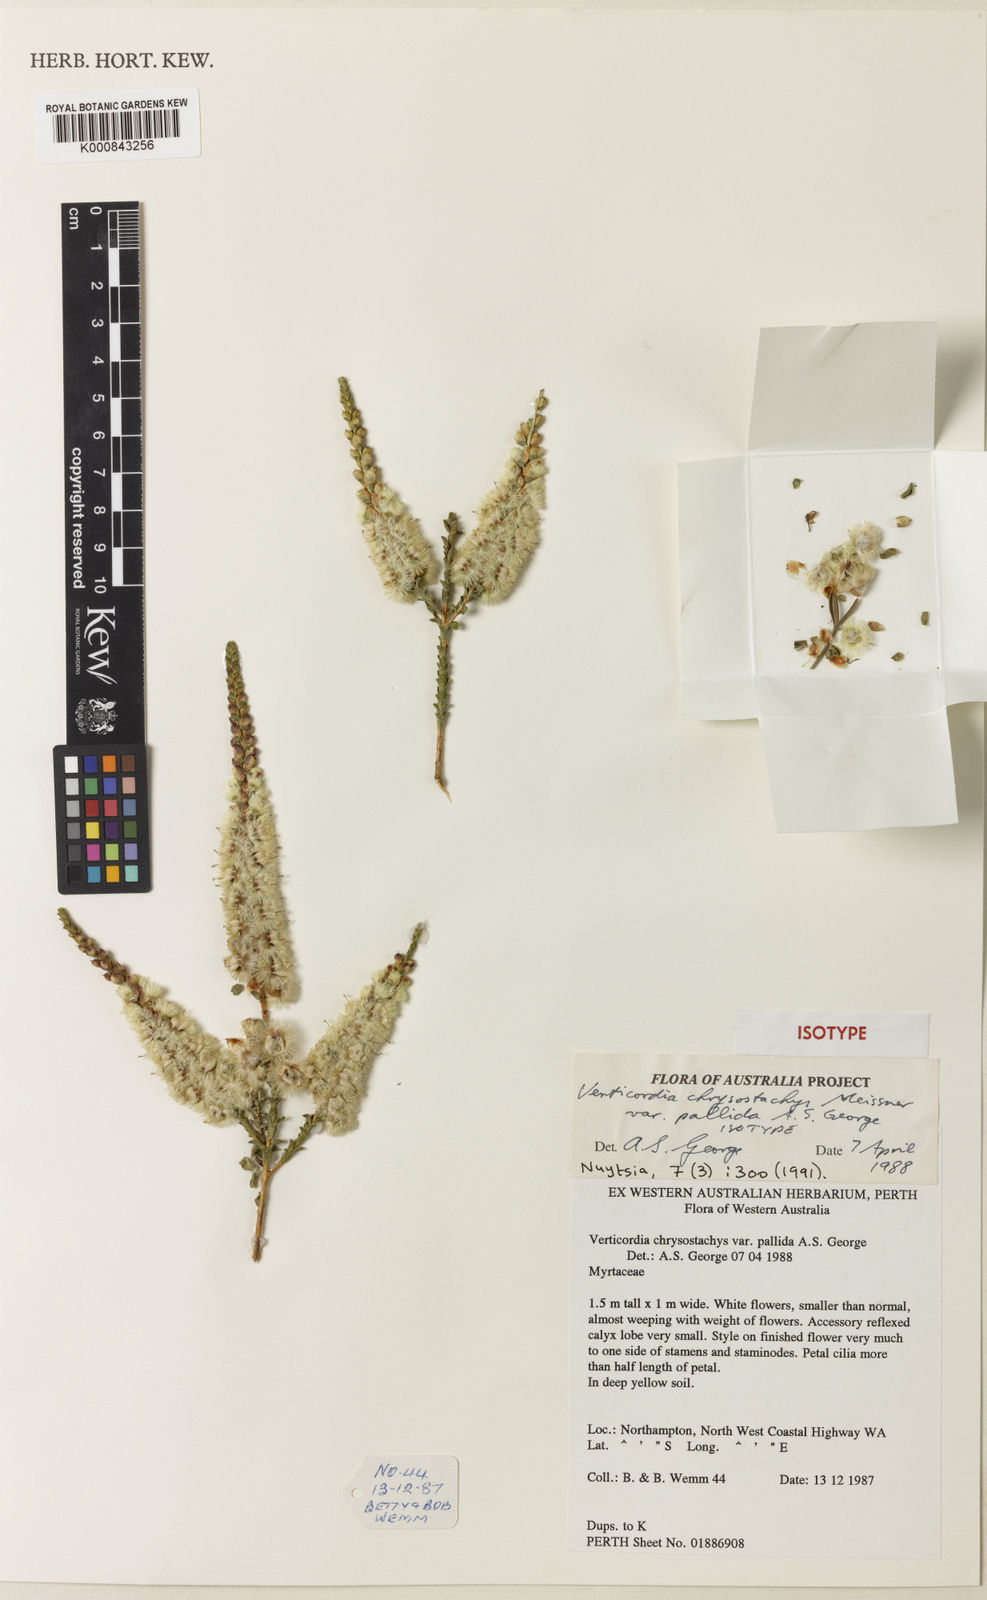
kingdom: Plantae
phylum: Tracheophyta
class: Magnoliopsida
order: Myrtales
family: Myrtaceae
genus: Verticordia
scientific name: Verticordia chrysostachys
